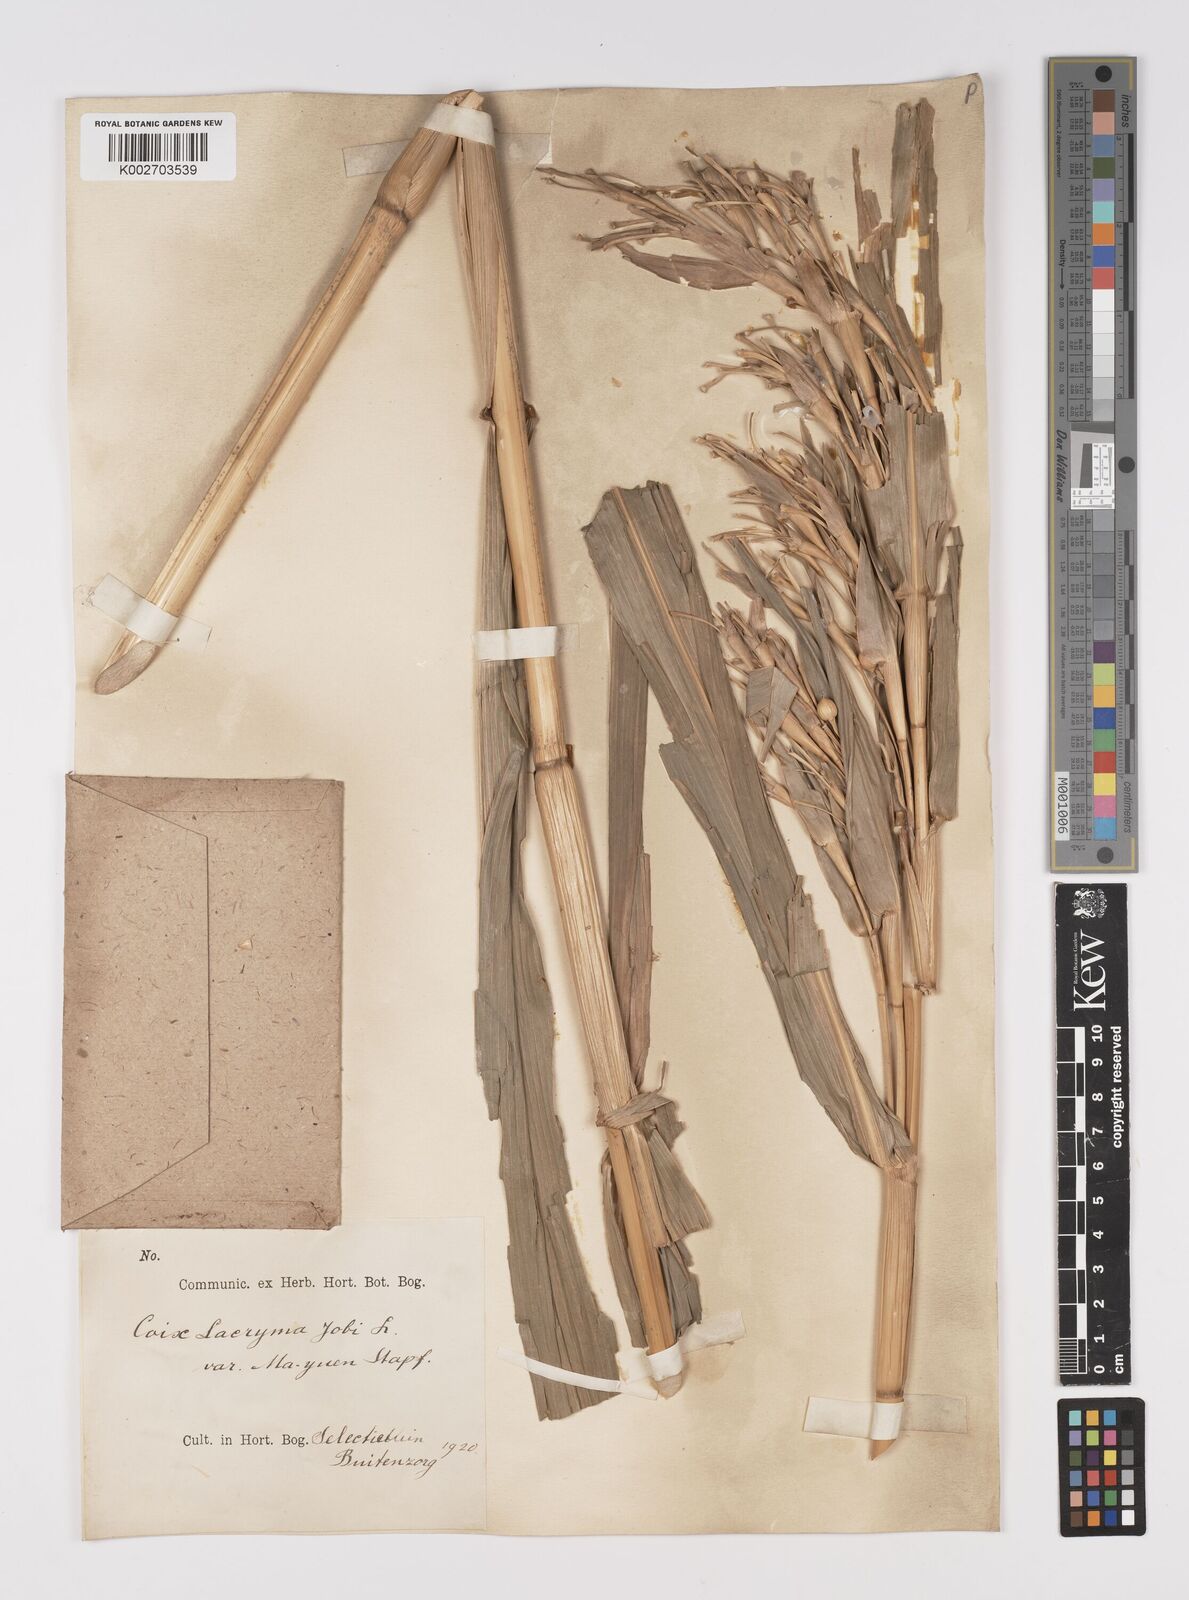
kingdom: Plantae
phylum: Tracheophyta
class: Liliopsida
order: Poales
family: Poaceae
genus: Coix
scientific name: Coix lacryma-jobi
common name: Job's tears
